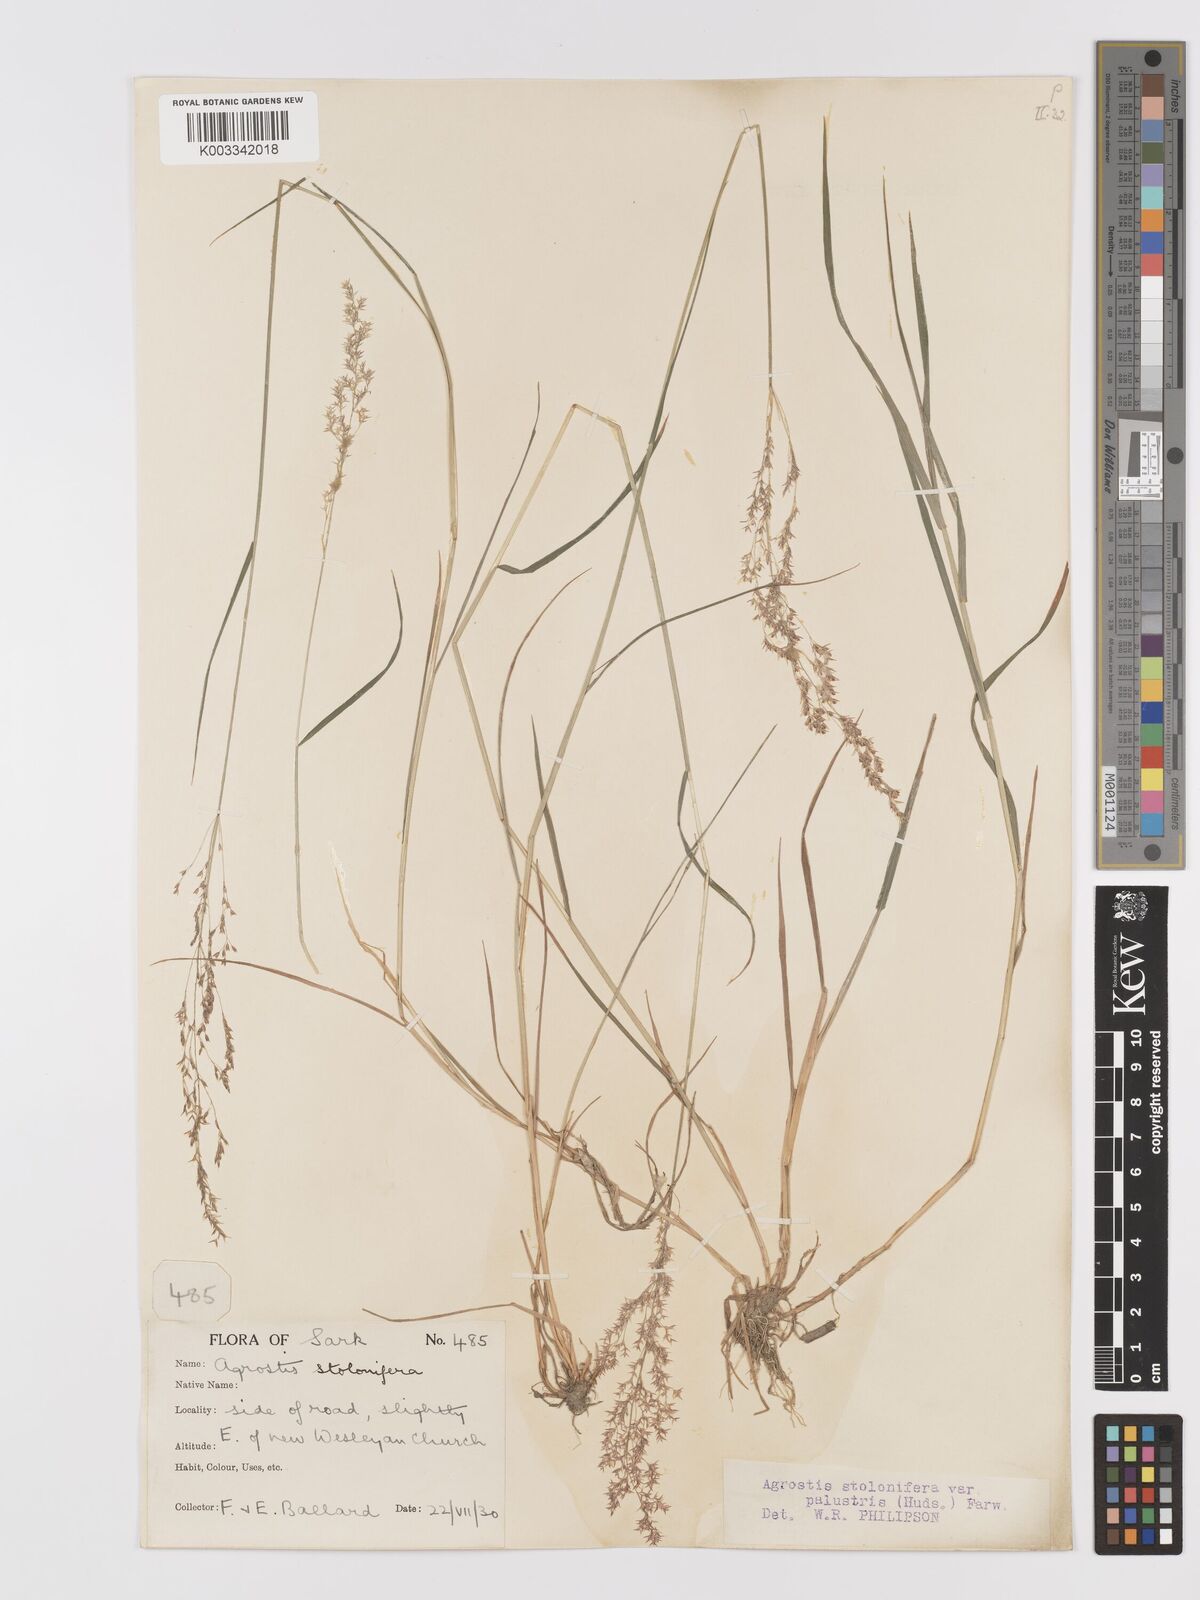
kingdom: Plantae
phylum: Tracheophyta
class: Liliopsida
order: Poales
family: Poaceae
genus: Agrostis
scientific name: Agrostis stolonifera
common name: Creeping bentgrass
